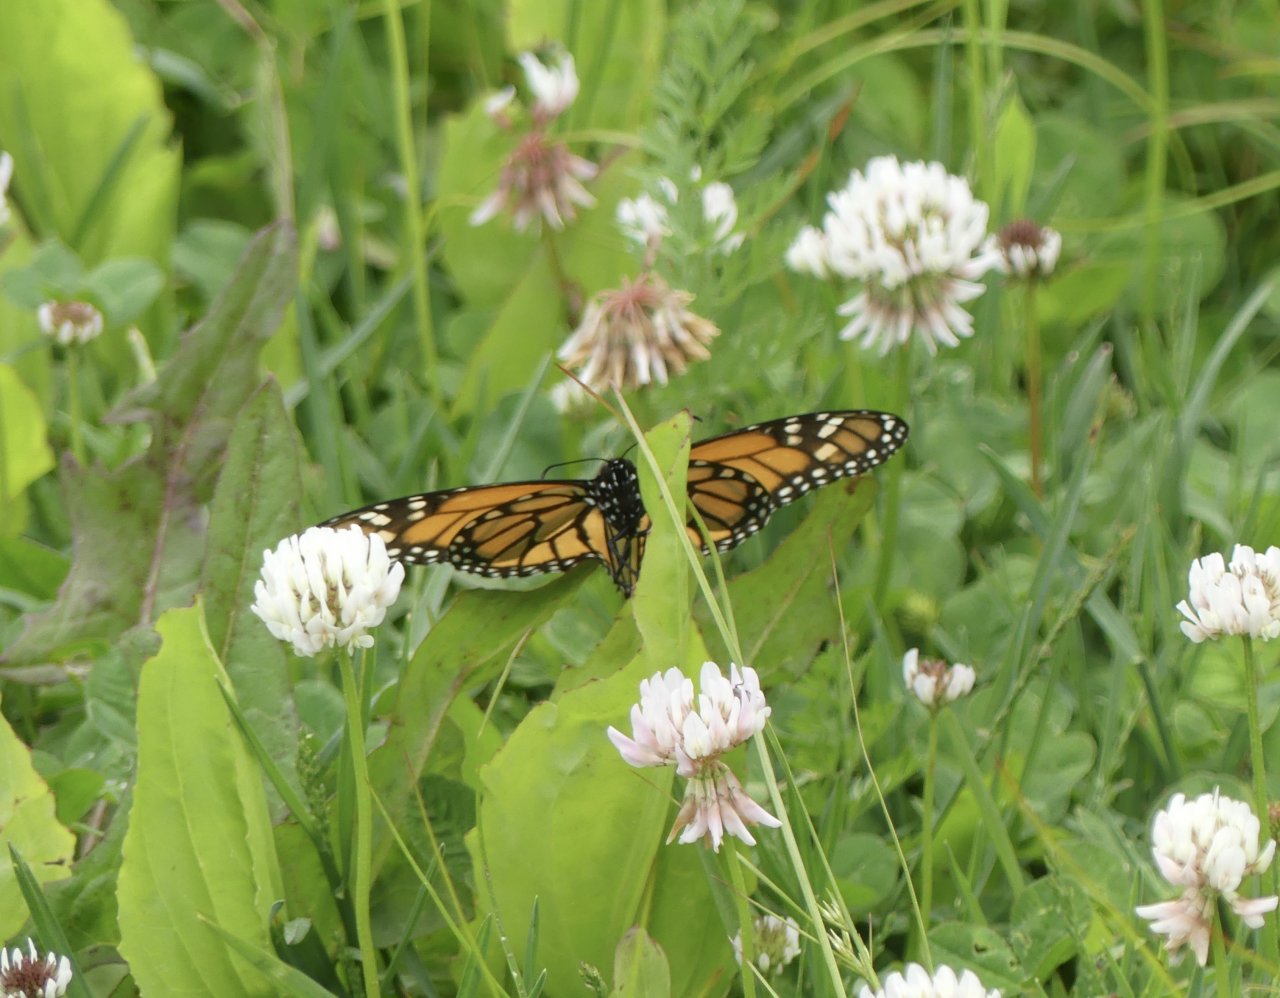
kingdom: Animalia
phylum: Arthropoda
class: Insecta
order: Lepidoptera
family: Nymphalidae
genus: Danaus
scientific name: Danaus plexippus
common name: Monarch
